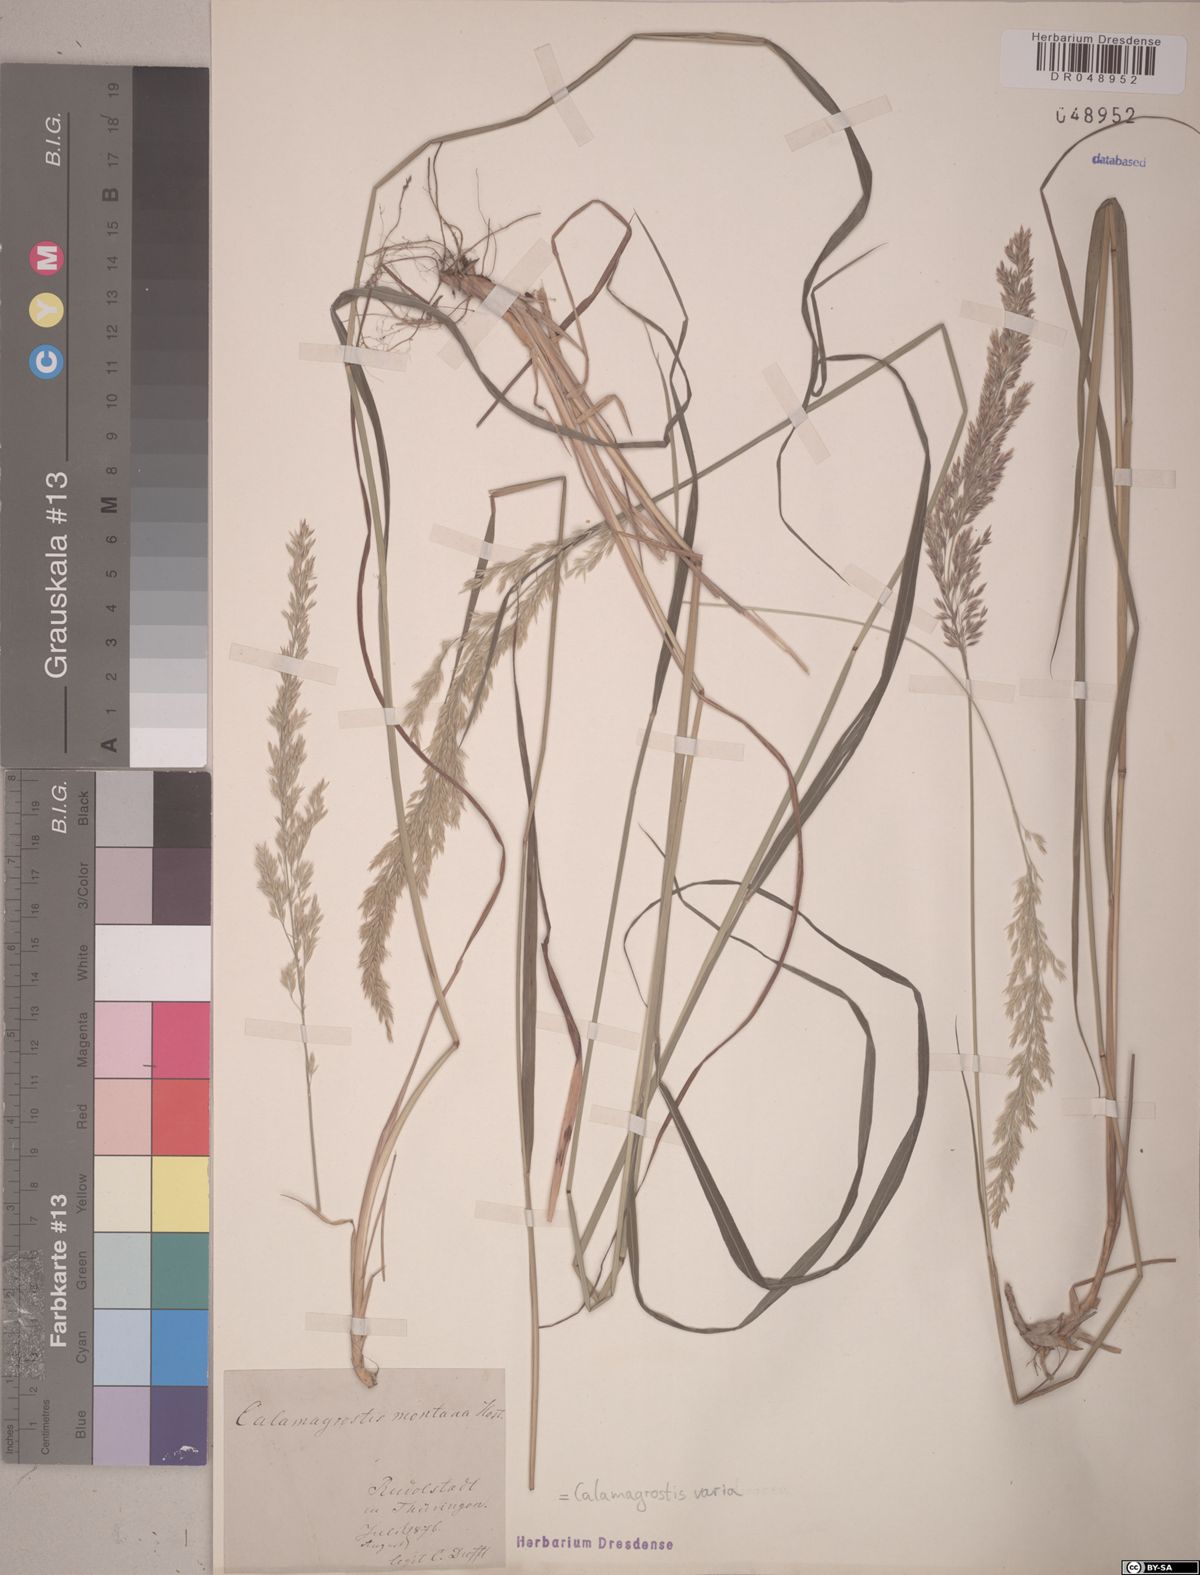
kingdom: Plantae
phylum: Tracheophyta
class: Liliopsida
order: Poales
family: Poaceae
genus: Calamagrostis
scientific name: Calamagrostis varia
